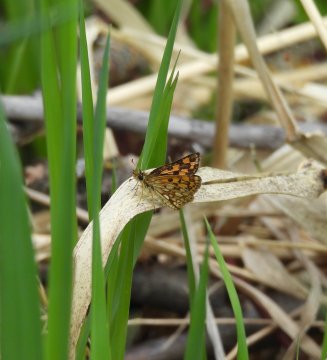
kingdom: Animalia
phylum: Arthropoda
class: Insecta
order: Lepidoptera
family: Hesperiidae
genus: Carterocephalus
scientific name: Carterocephalus palaemon
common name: Chequered Skipper
